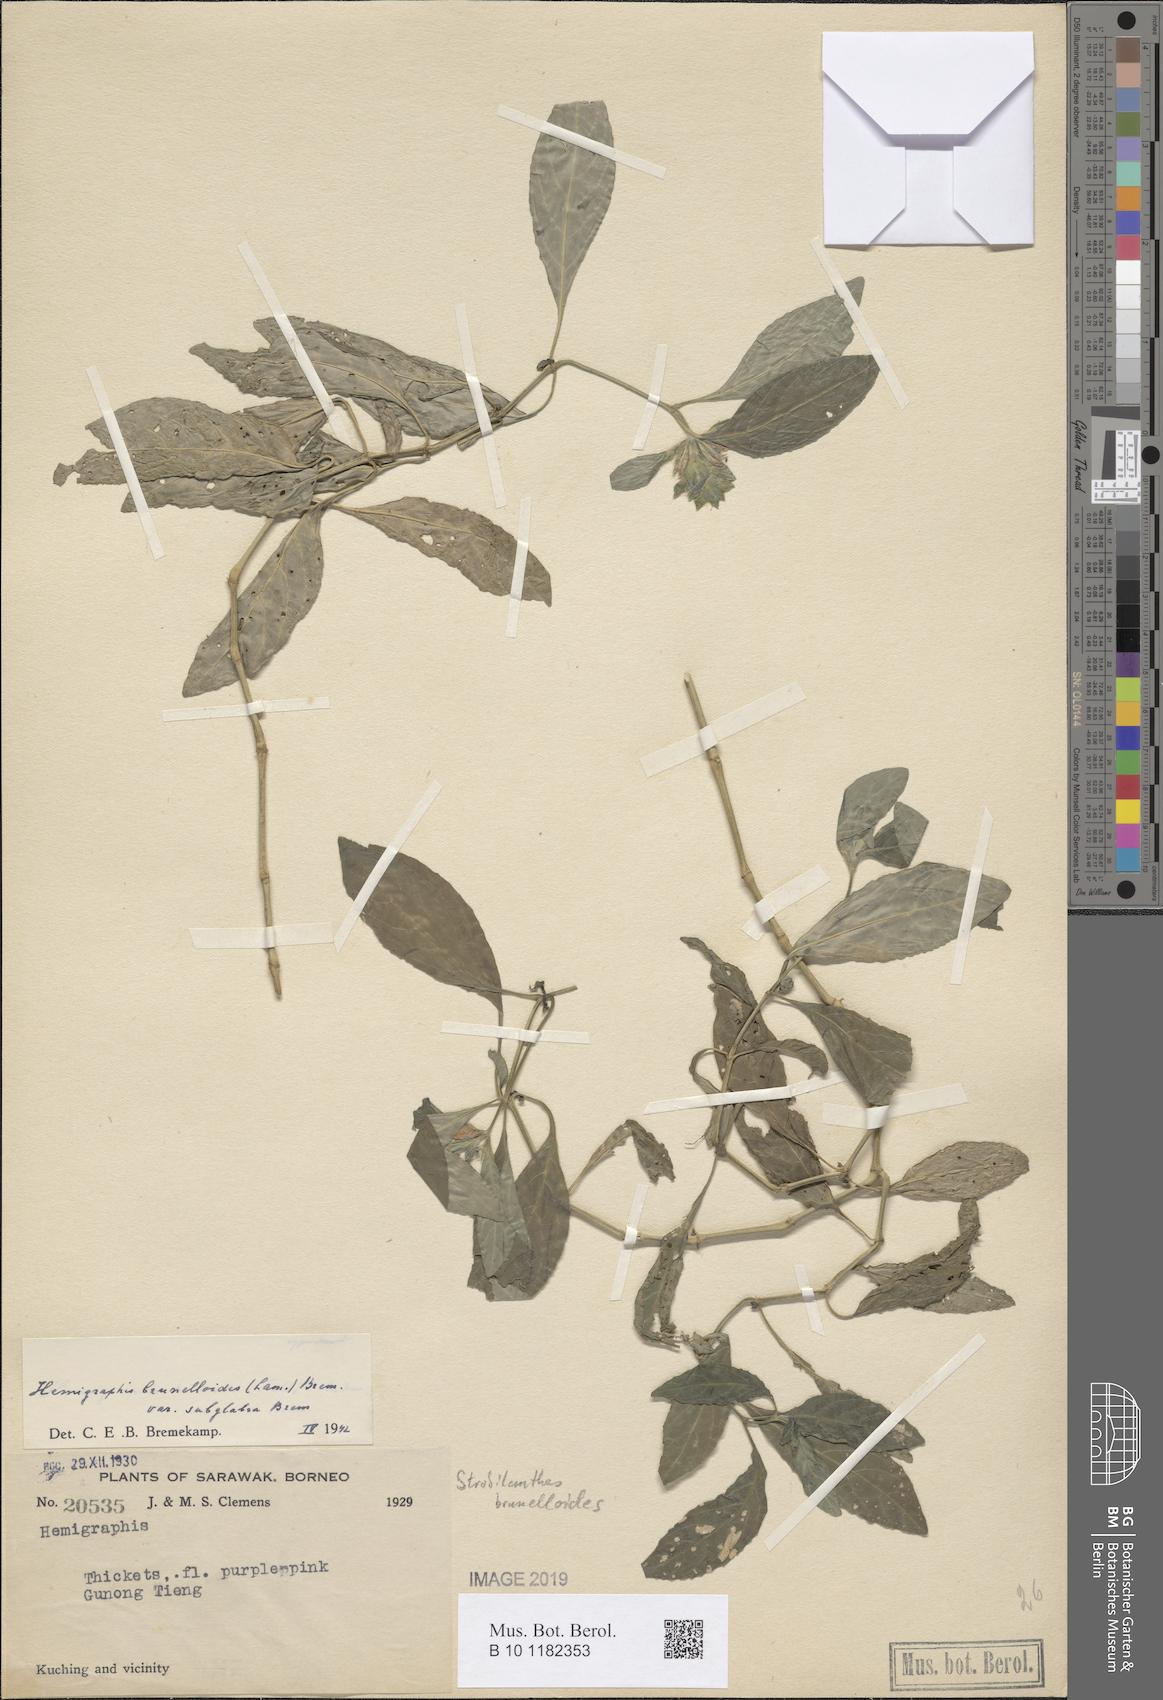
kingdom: Plantae
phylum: Tracheophyta
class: Magnoliopsida
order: Lamiales
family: Acanthaceae
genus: Strobilanthes
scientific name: Strobilanthes brunelloides
